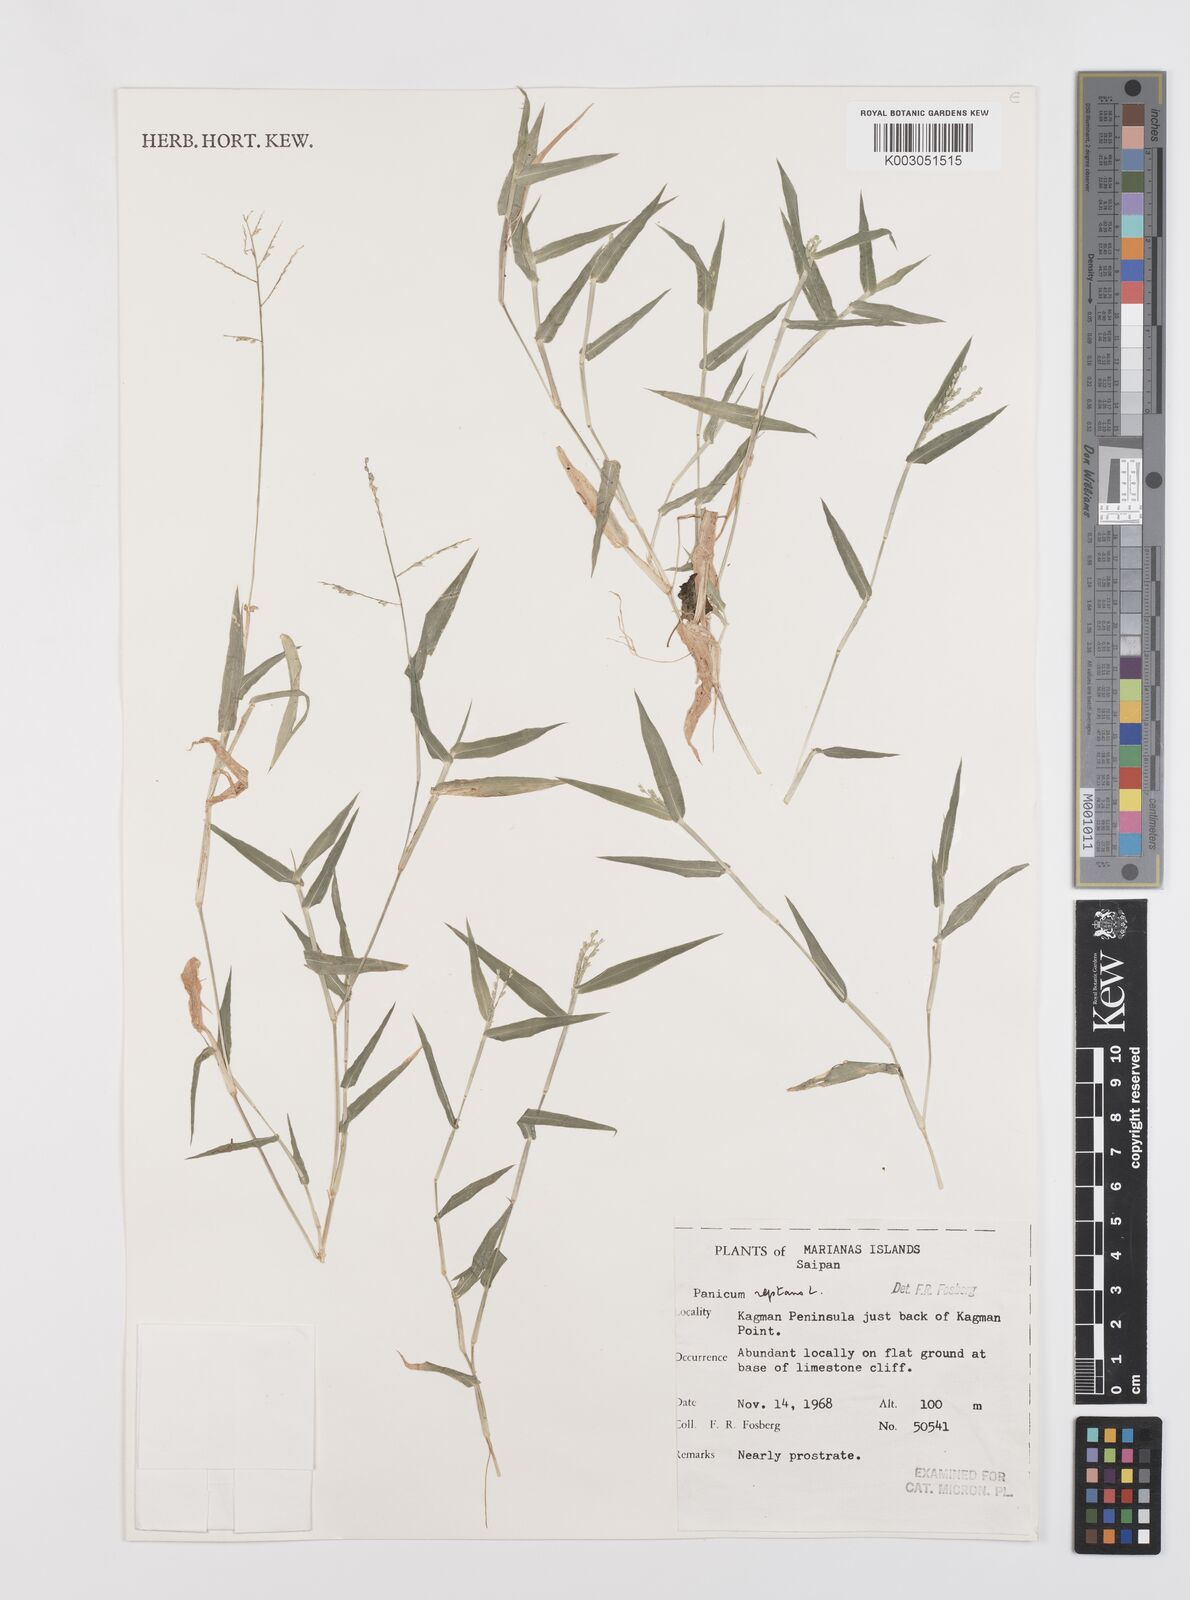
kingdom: Plantae
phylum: Tracheophyta
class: Liliopsida
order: Poales
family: Poaceae
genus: Urochloa
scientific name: Urochloa reptans
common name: Sprawling signalgrass
